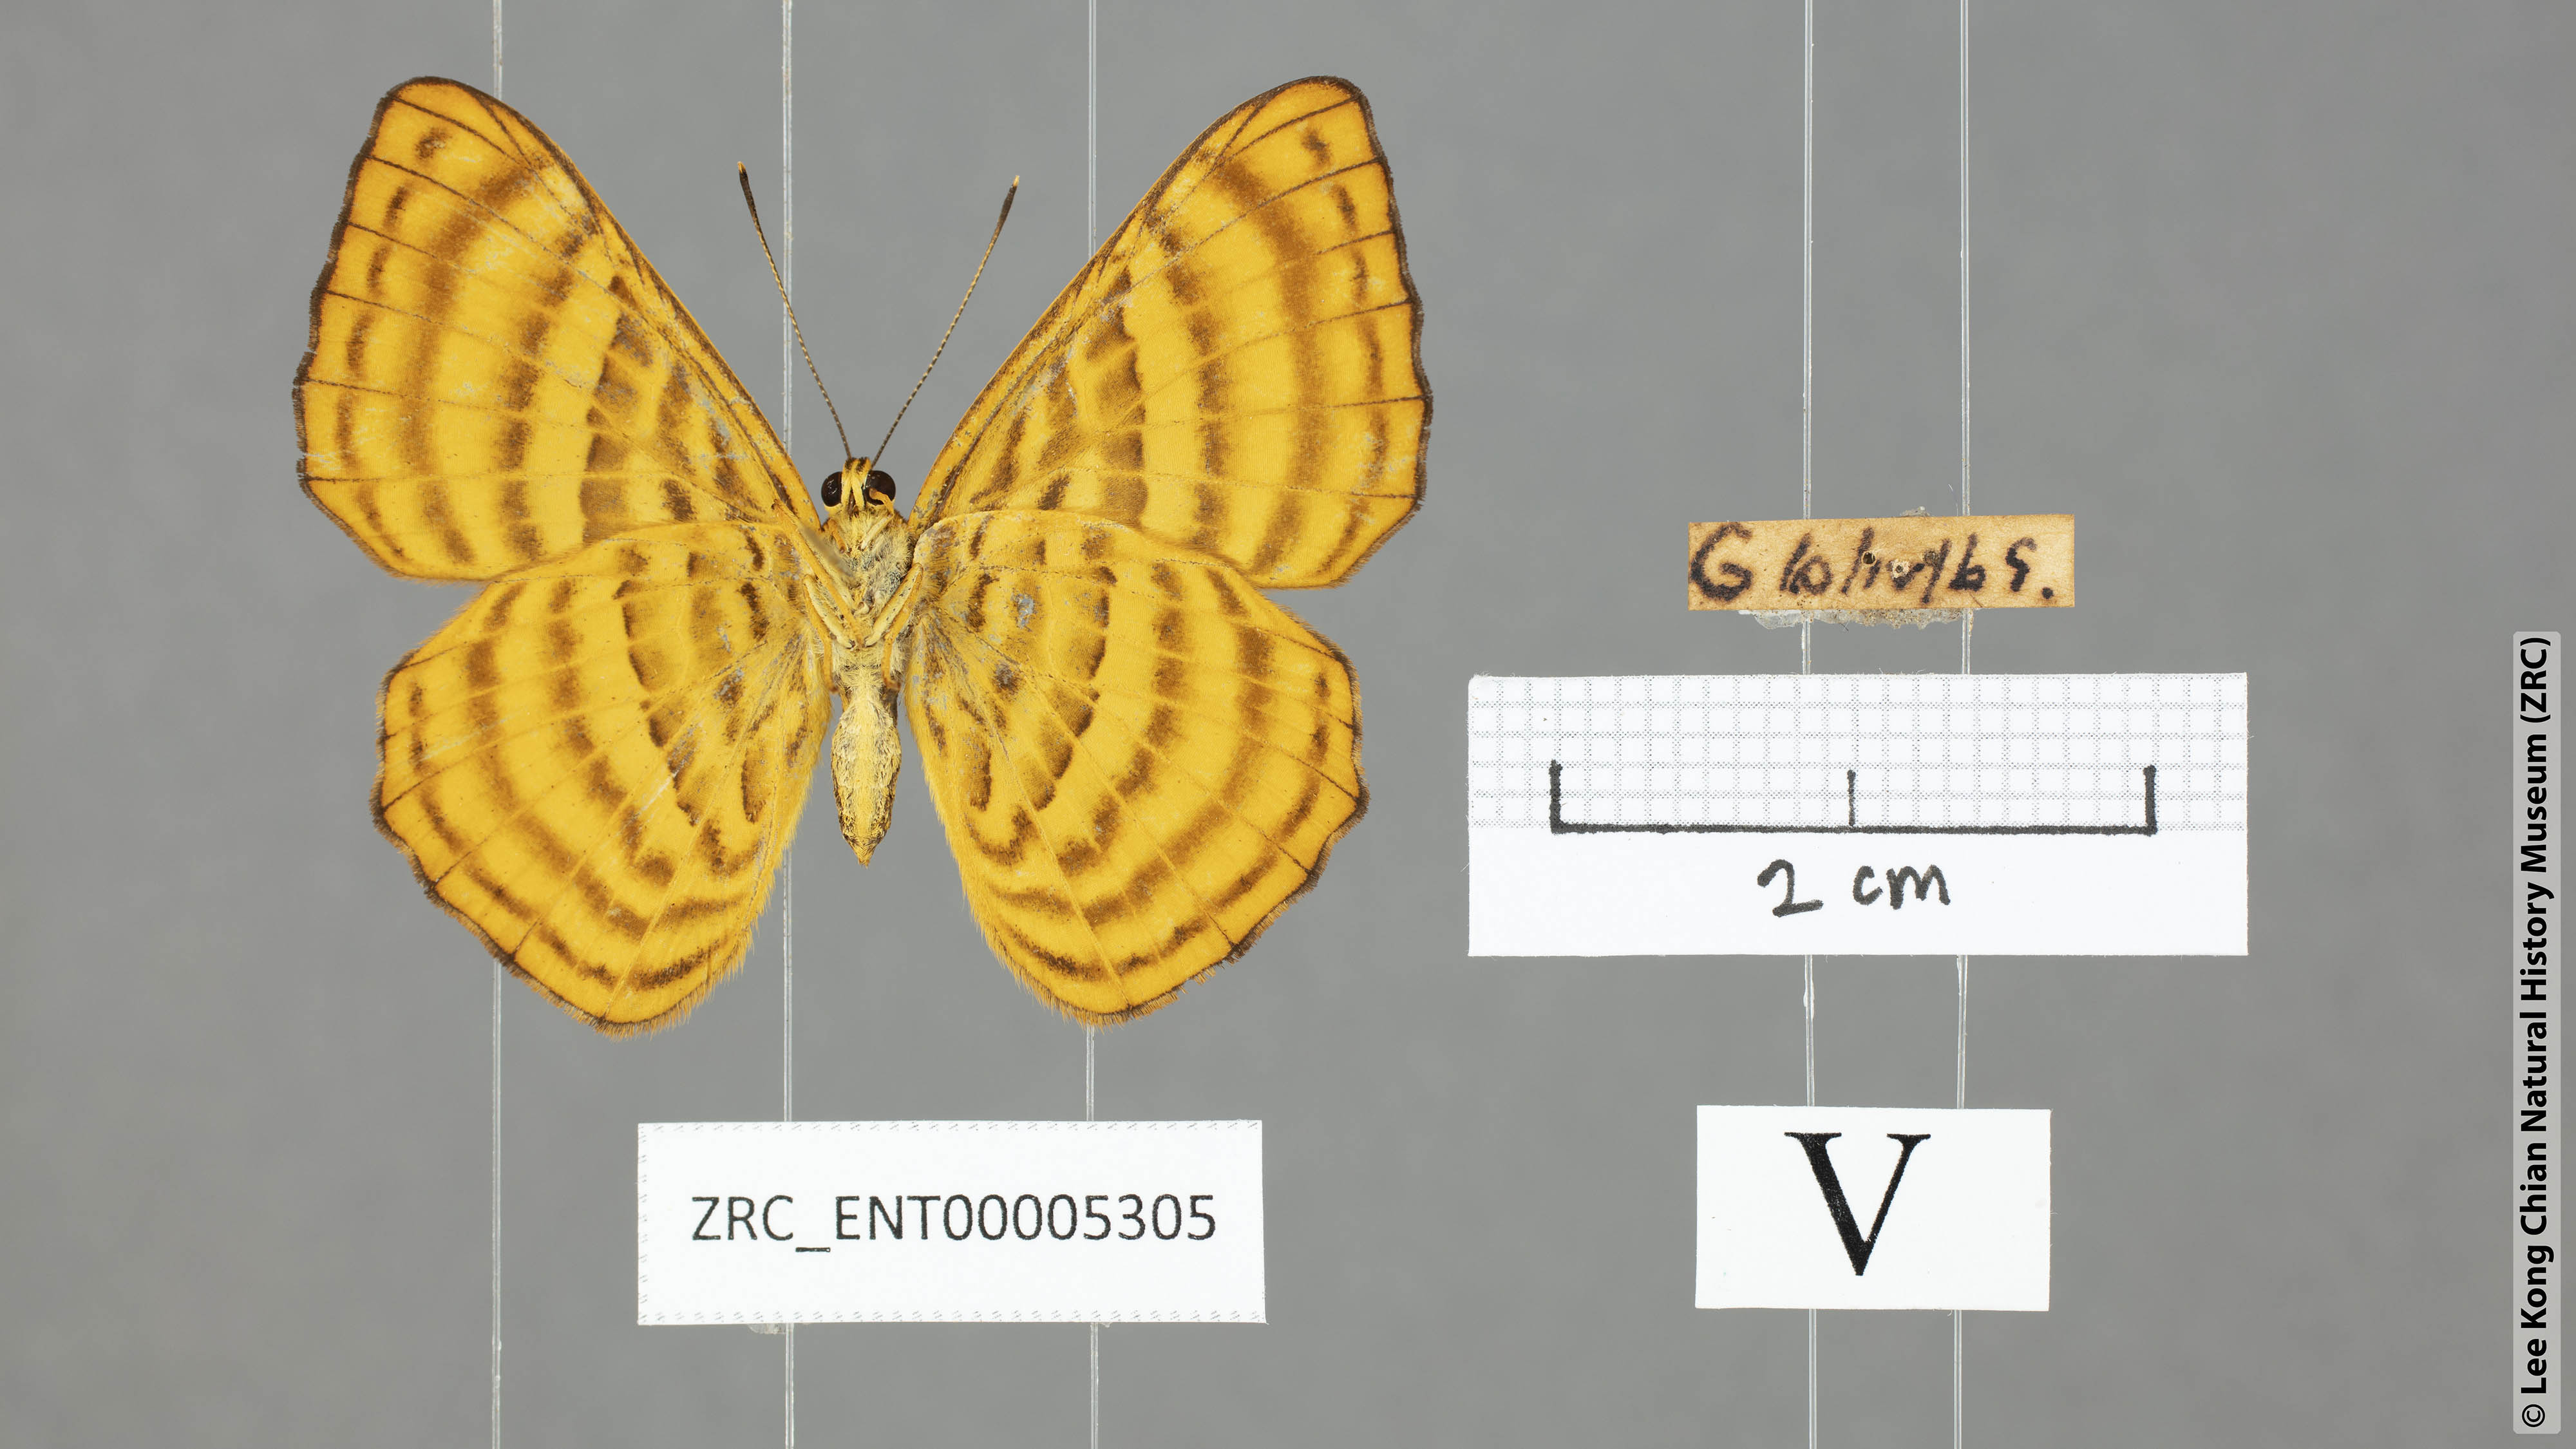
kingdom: Animalia
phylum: Arthropoda
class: Insecta
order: Lepidoptera
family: Riodinidae
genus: Zemeros
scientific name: Zemeros emesoides
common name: Malay punchinello
